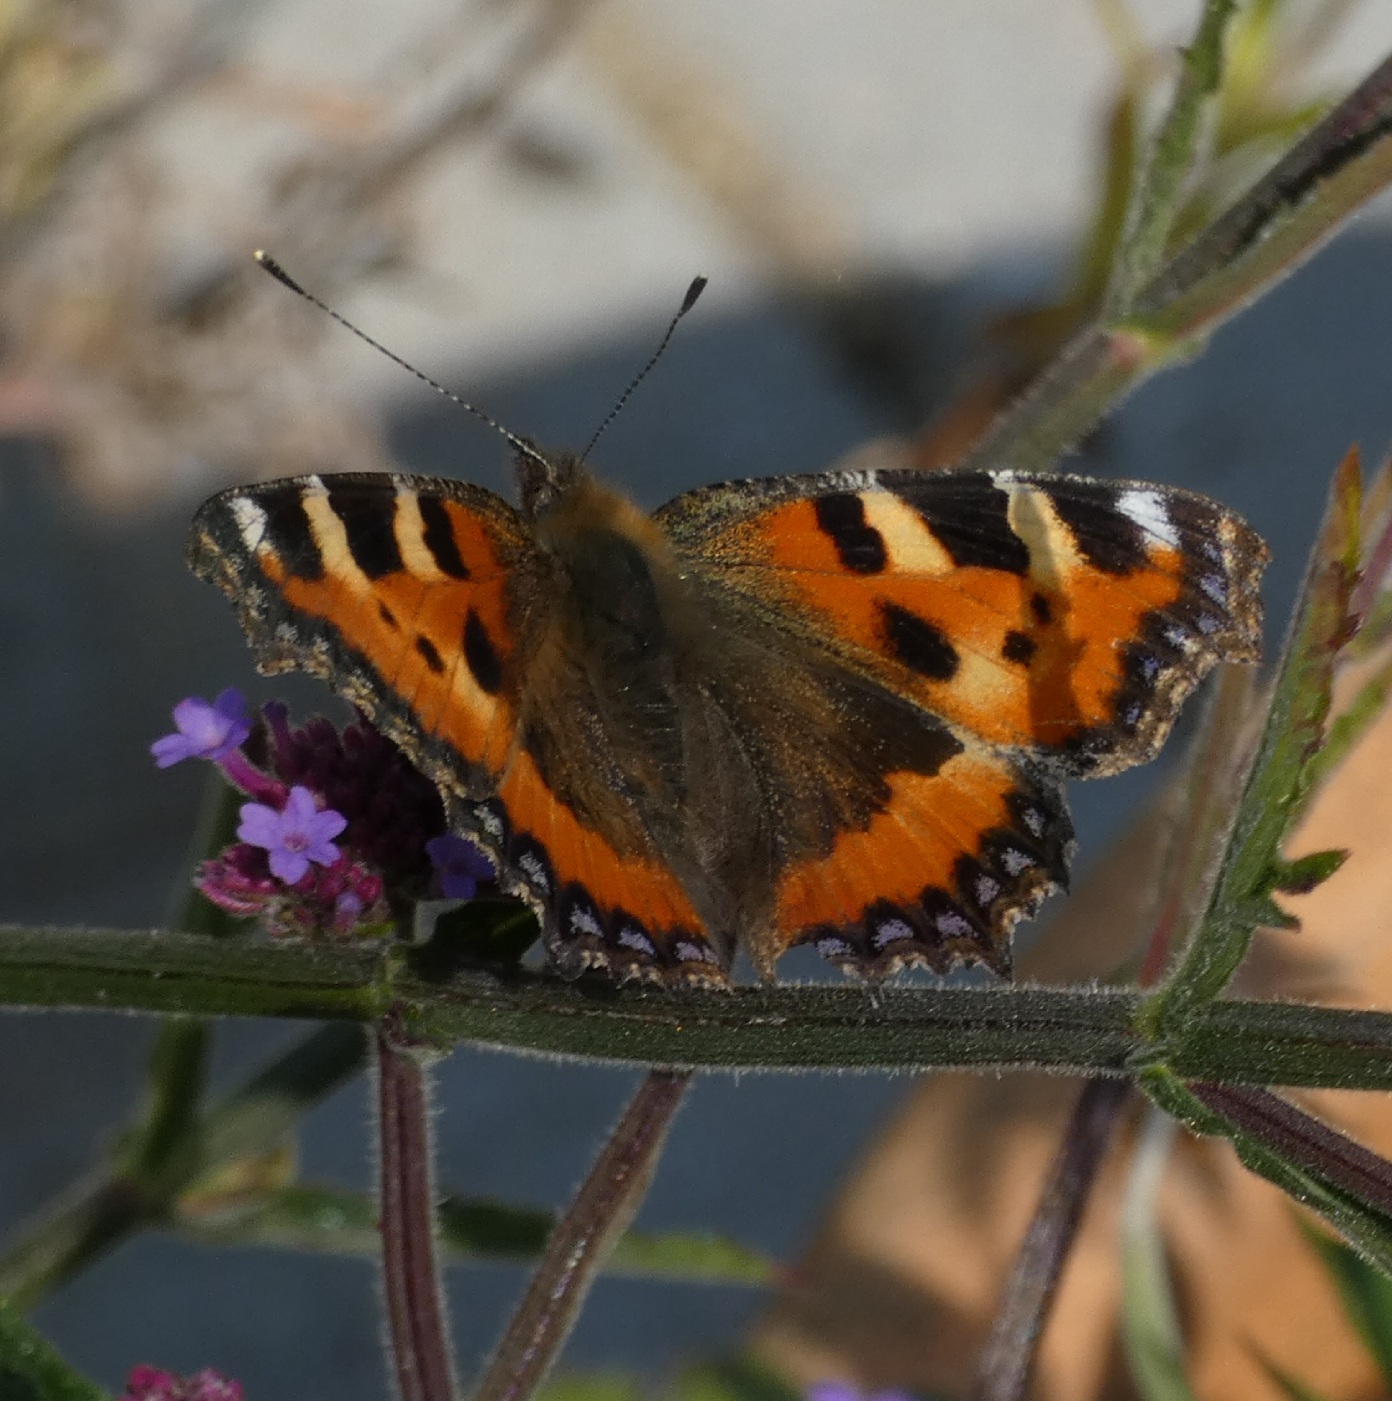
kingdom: Animalia
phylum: Arthropoda
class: Insecta
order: Lepidoptera
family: Nymphalidae
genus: Aglais
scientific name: Aglais urticae
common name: Nældens takvinge
